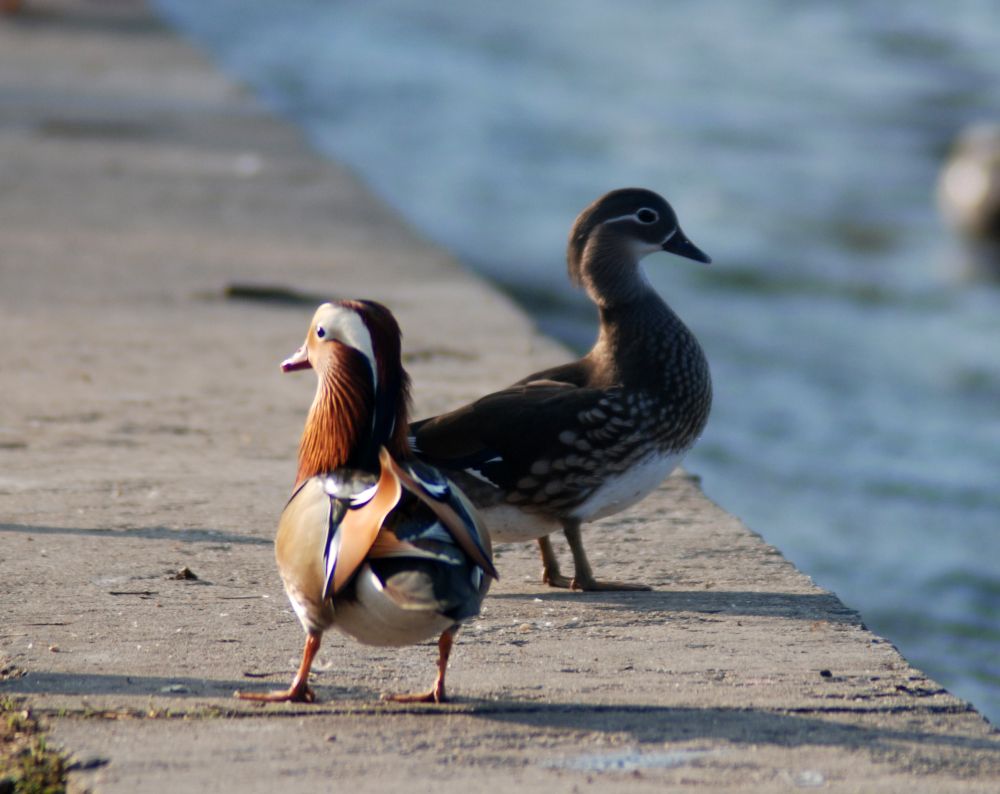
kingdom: Animalia
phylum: Chordata
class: Aves
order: Anseriformes
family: Anatidae
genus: Aix
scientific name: Aix galericulata
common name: Mandarin duck
